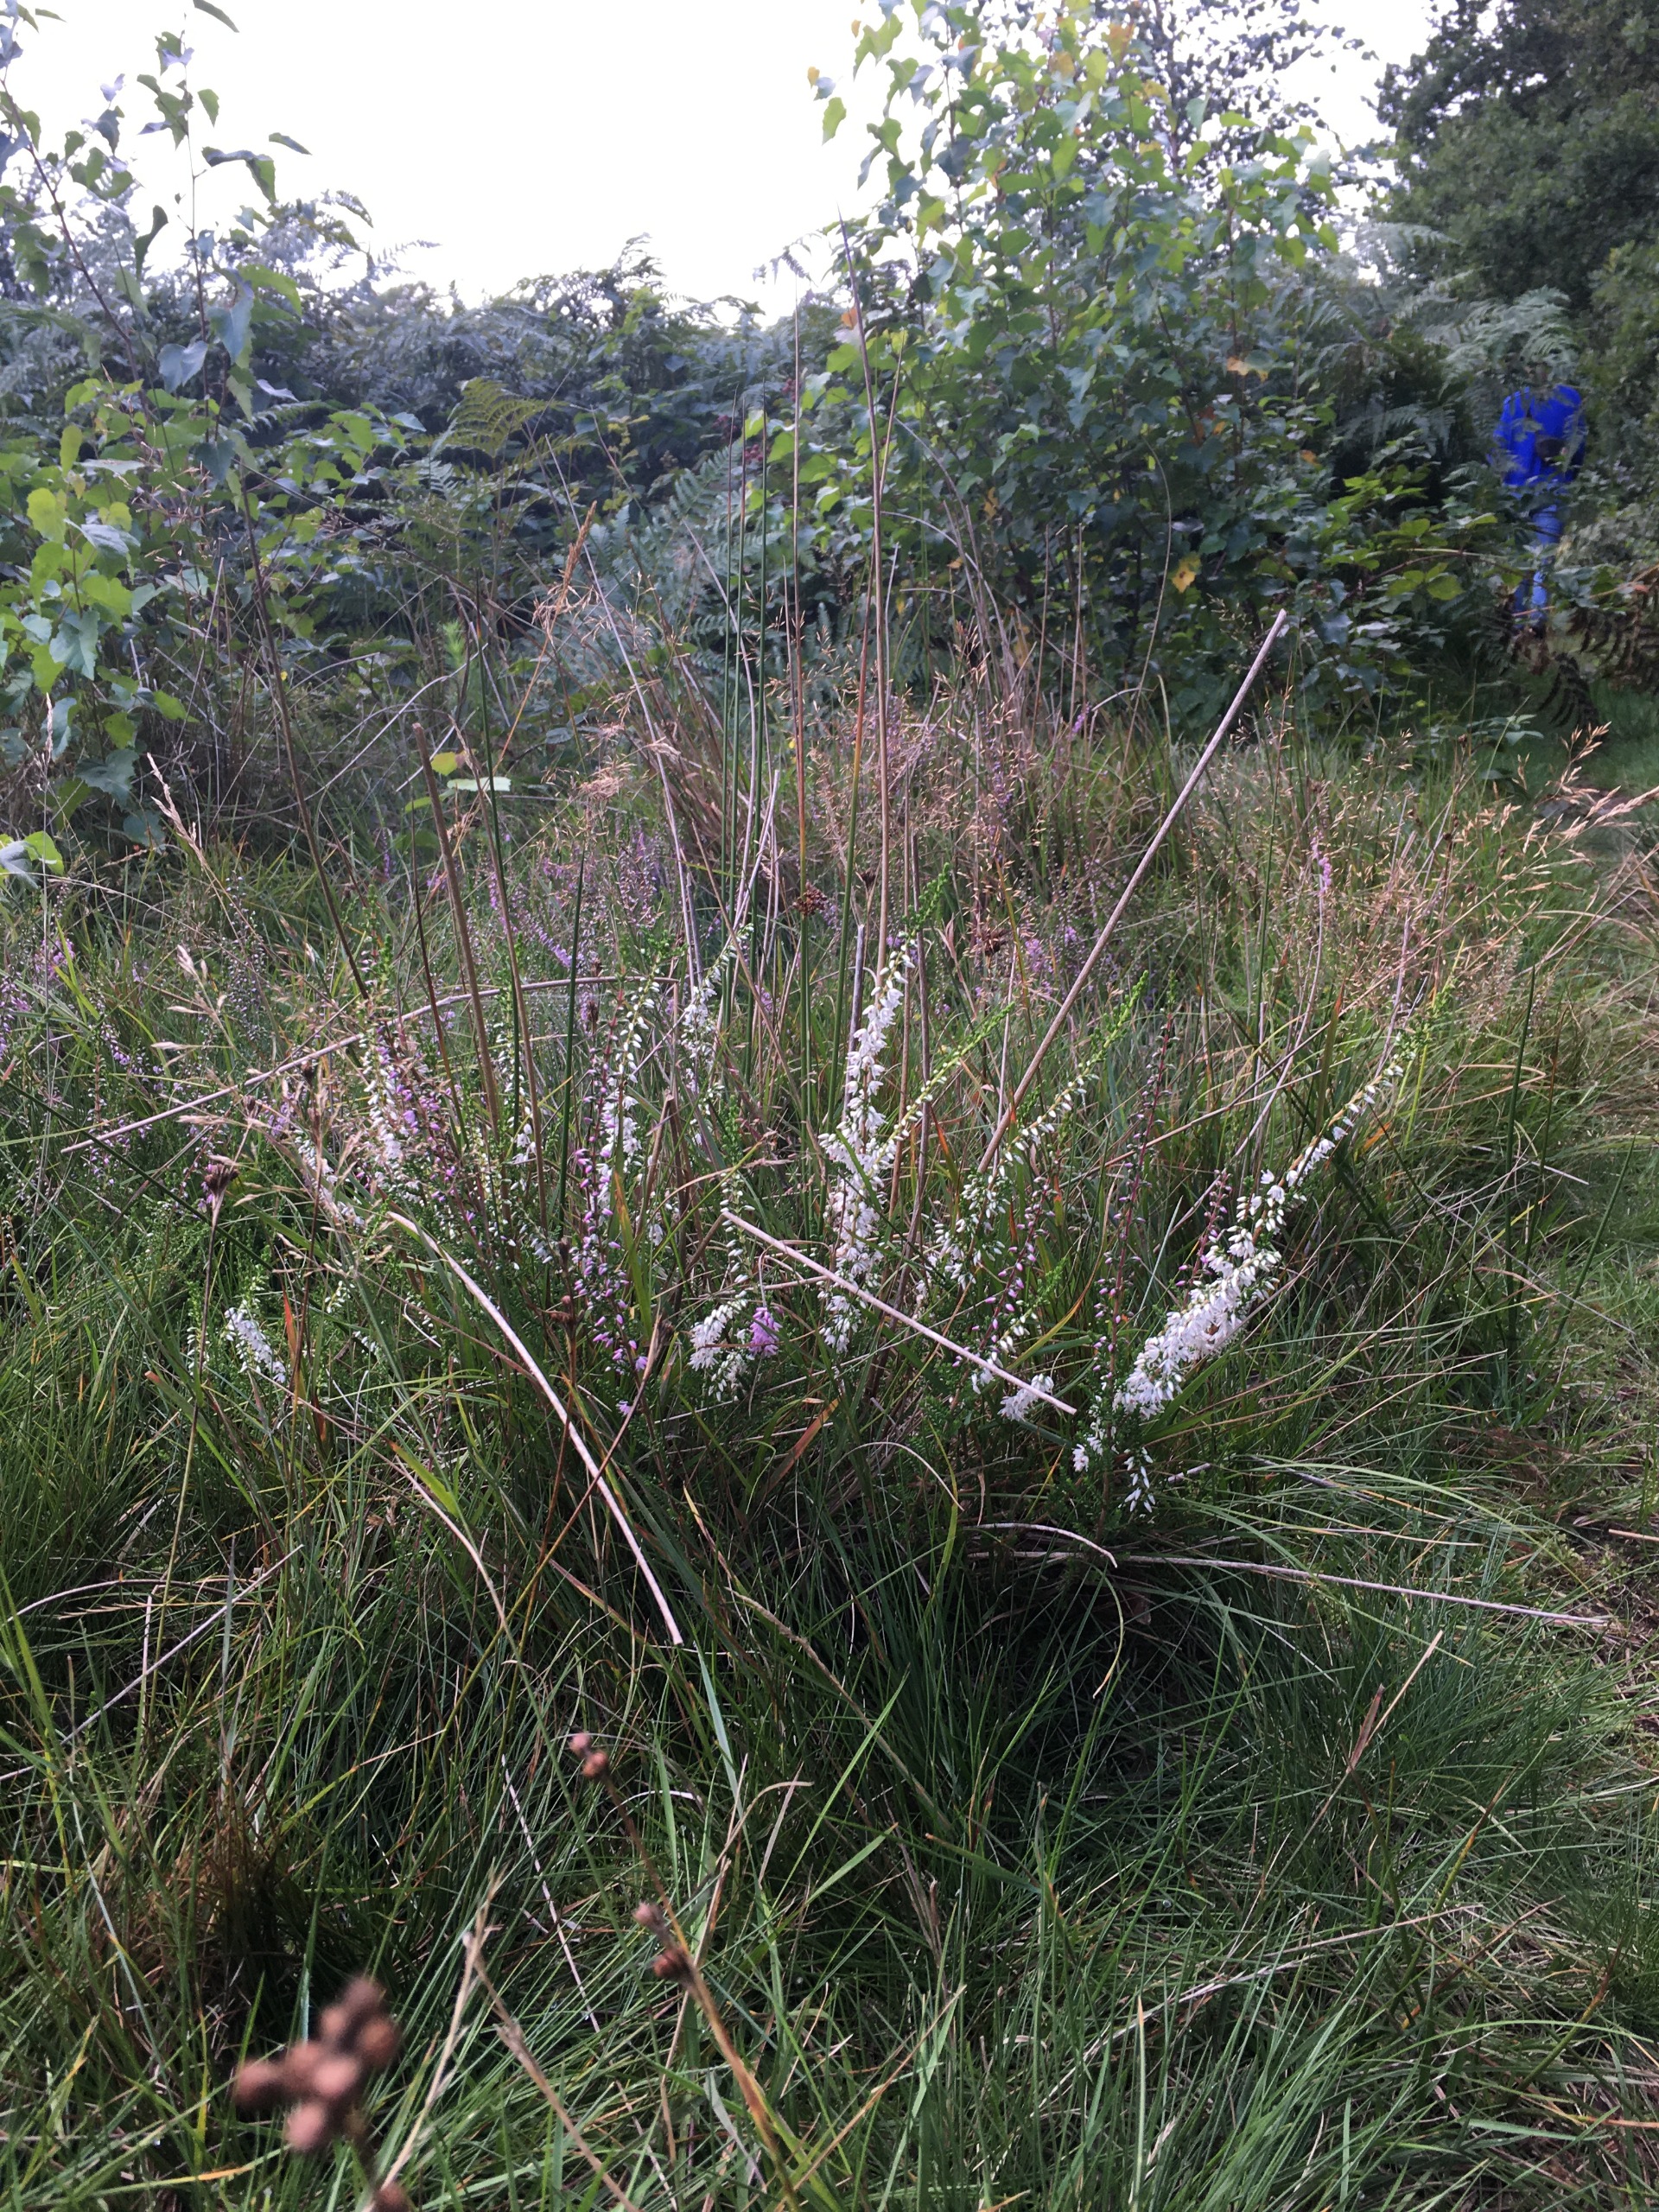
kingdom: Plantae
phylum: Tracheophyta
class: Magnoliopsida
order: Ericales
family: Ericaceae
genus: Calluna
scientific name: Calluna vulgaris
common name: Hedelyng
